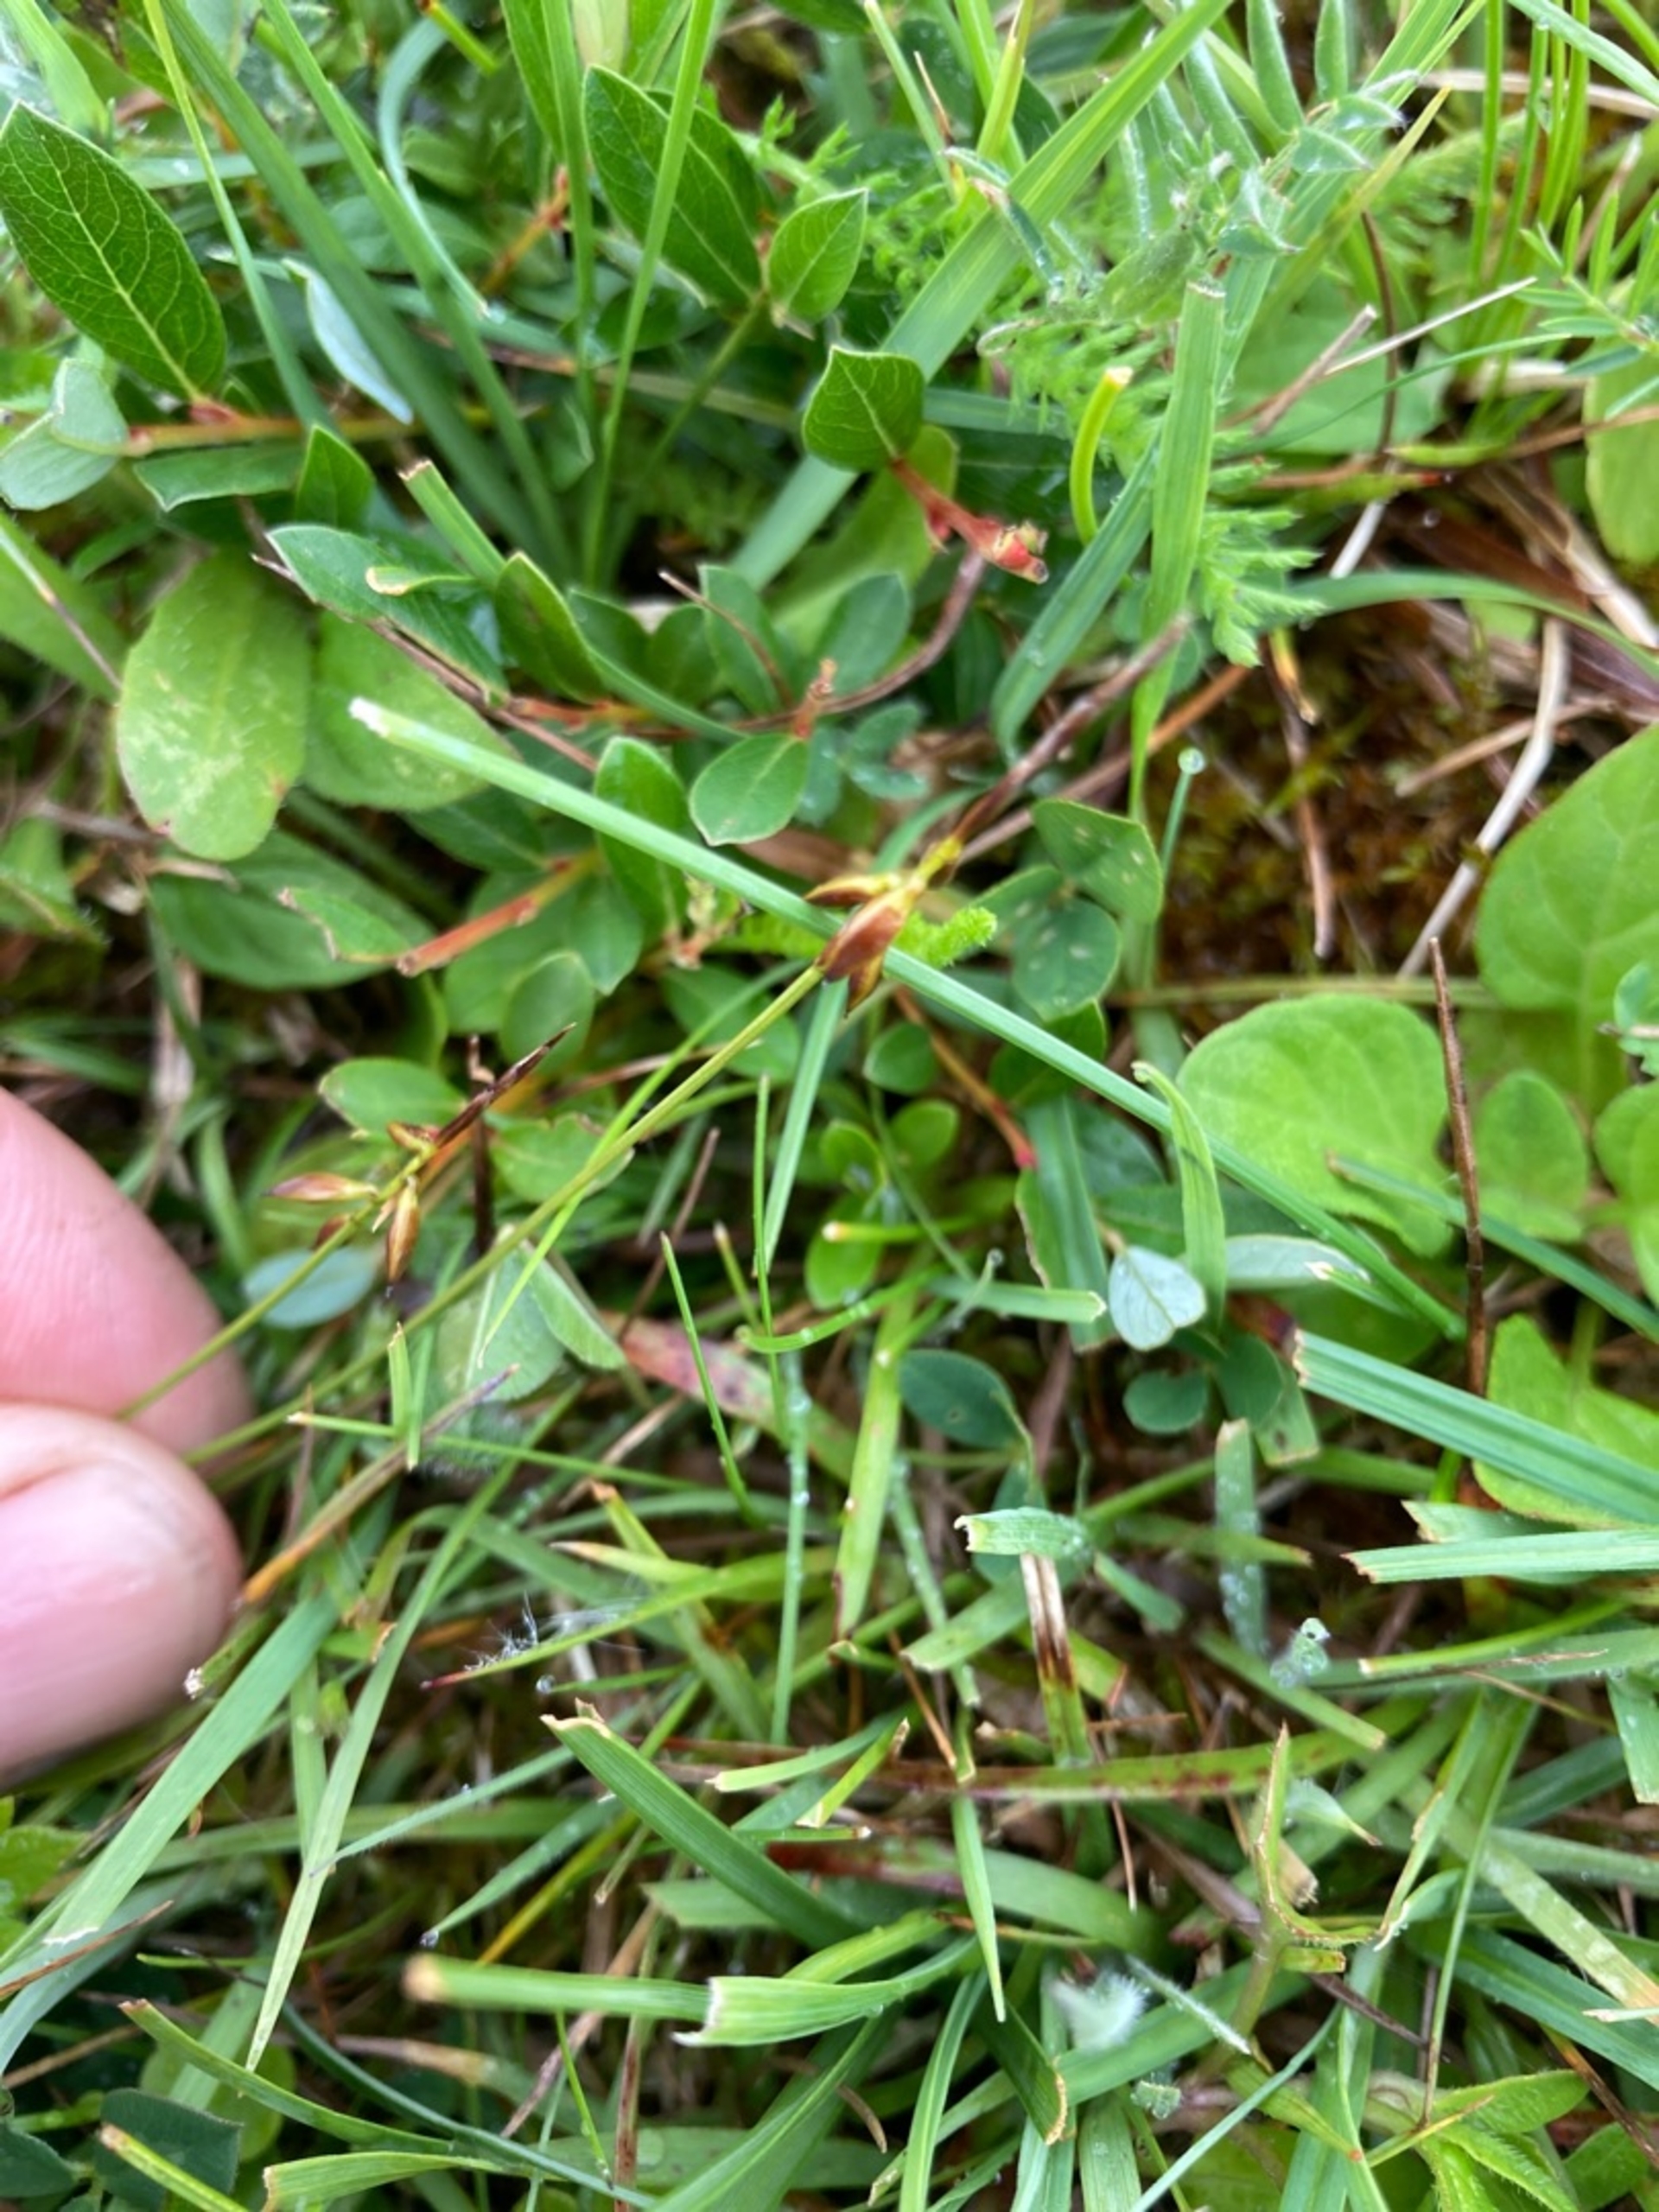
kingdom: Plantae
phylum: Tracheophyta
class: Liliopsida
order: Poales
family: Cyperaceae
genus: Carex
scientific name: Carex pulicaris
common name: Loppe-star
